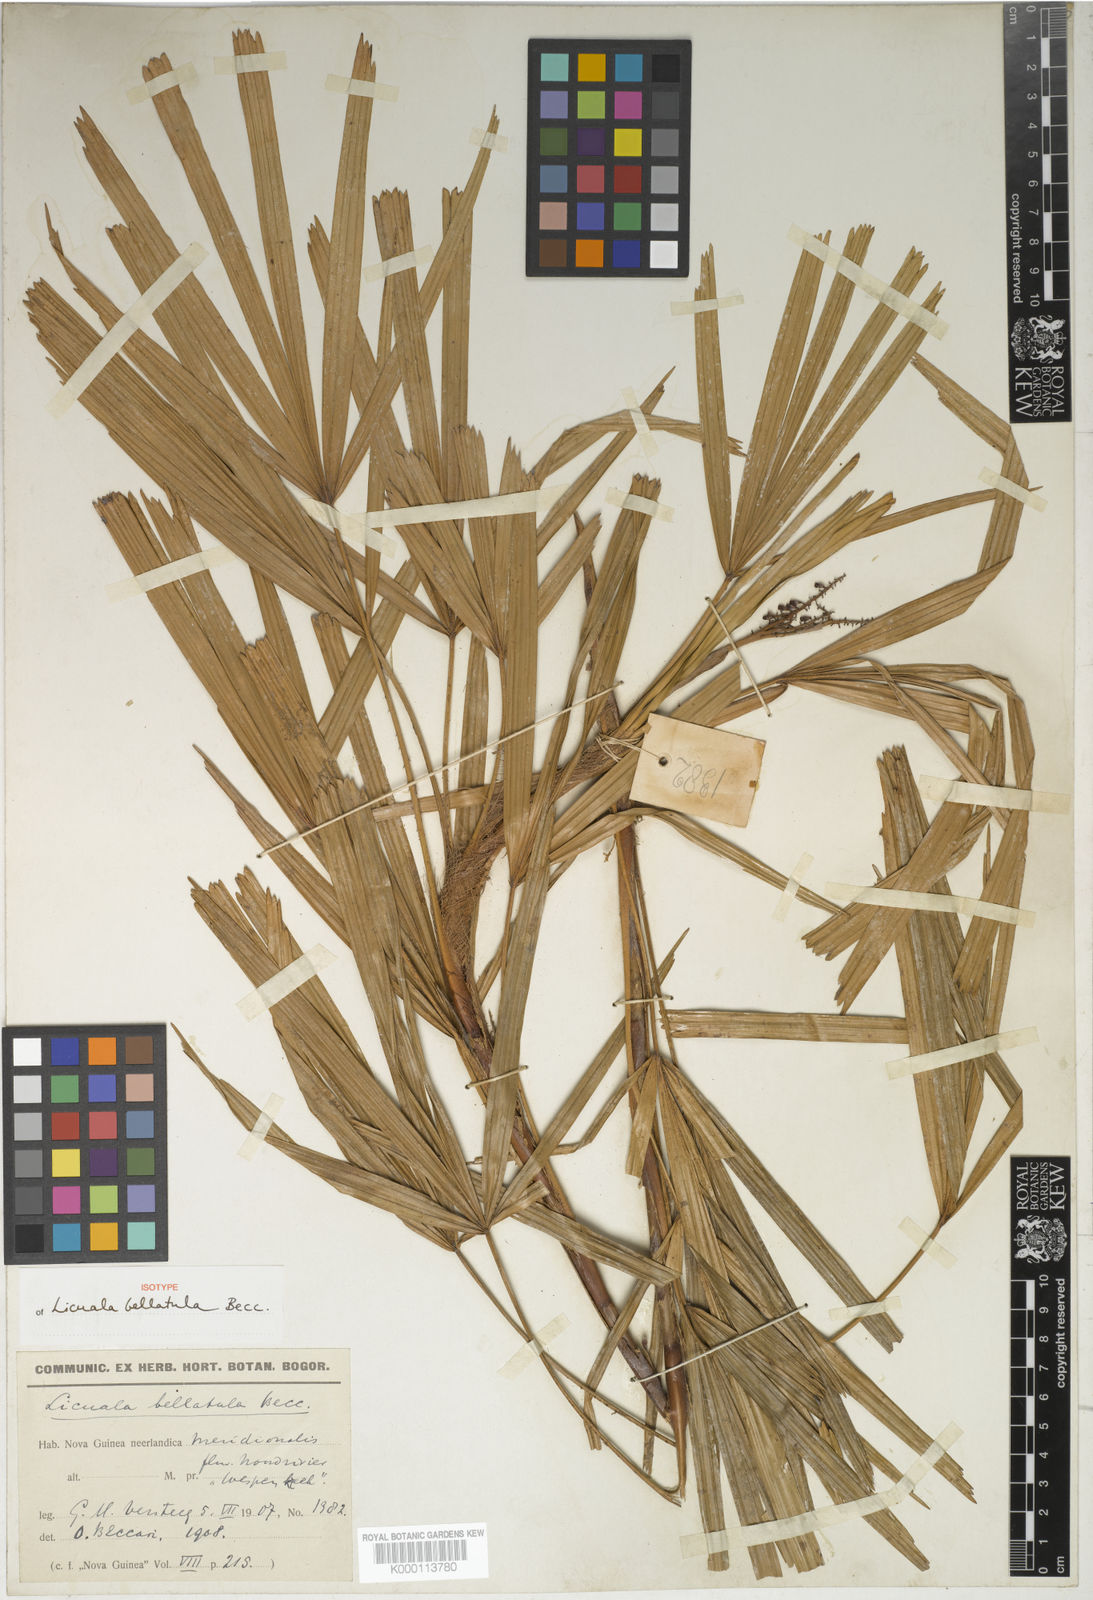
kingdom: Plantae
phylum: Tracheophyta
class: Liliopsida
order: Arecales
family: Arecaceae
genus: Licuala
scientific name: Licuala bellatula
